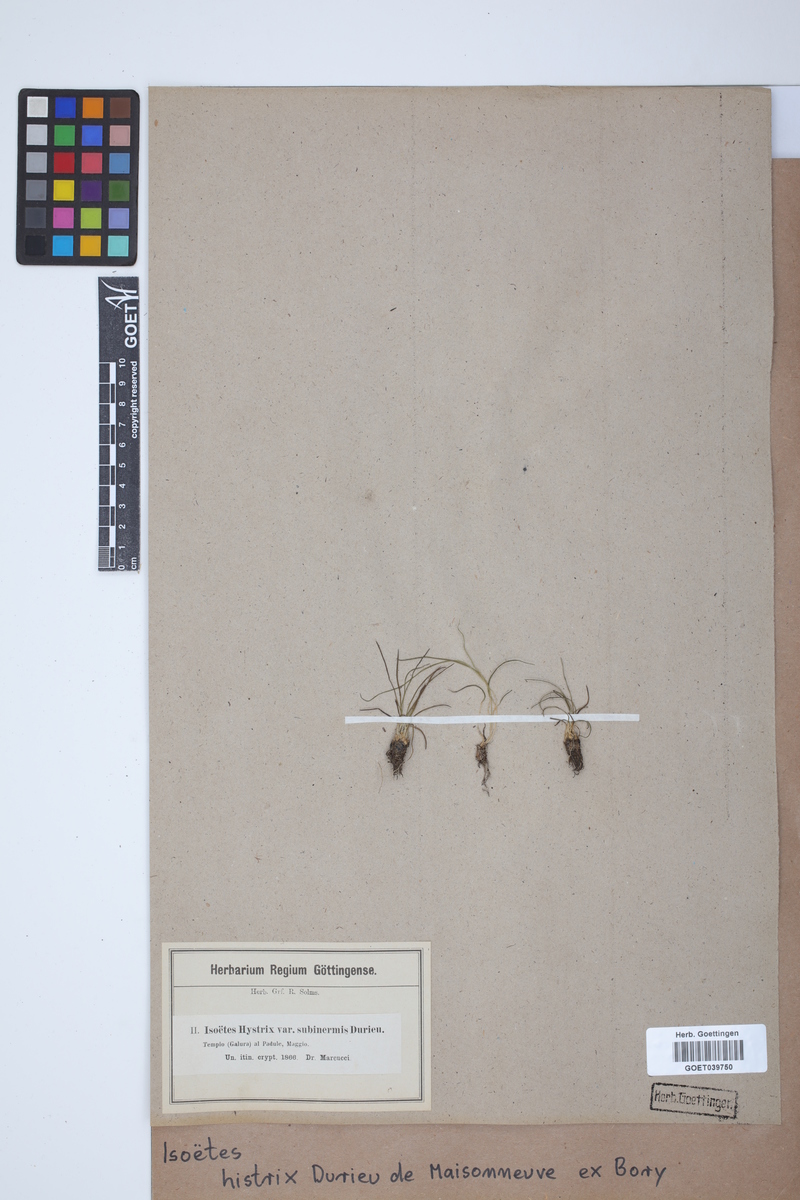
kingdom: Plantae
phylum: Tracheophyta
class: Lycopodiopsida
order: Isoetales
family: Isoetaceae
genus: Isoetes
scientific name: Isoetes histrix
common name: Land quillwort
